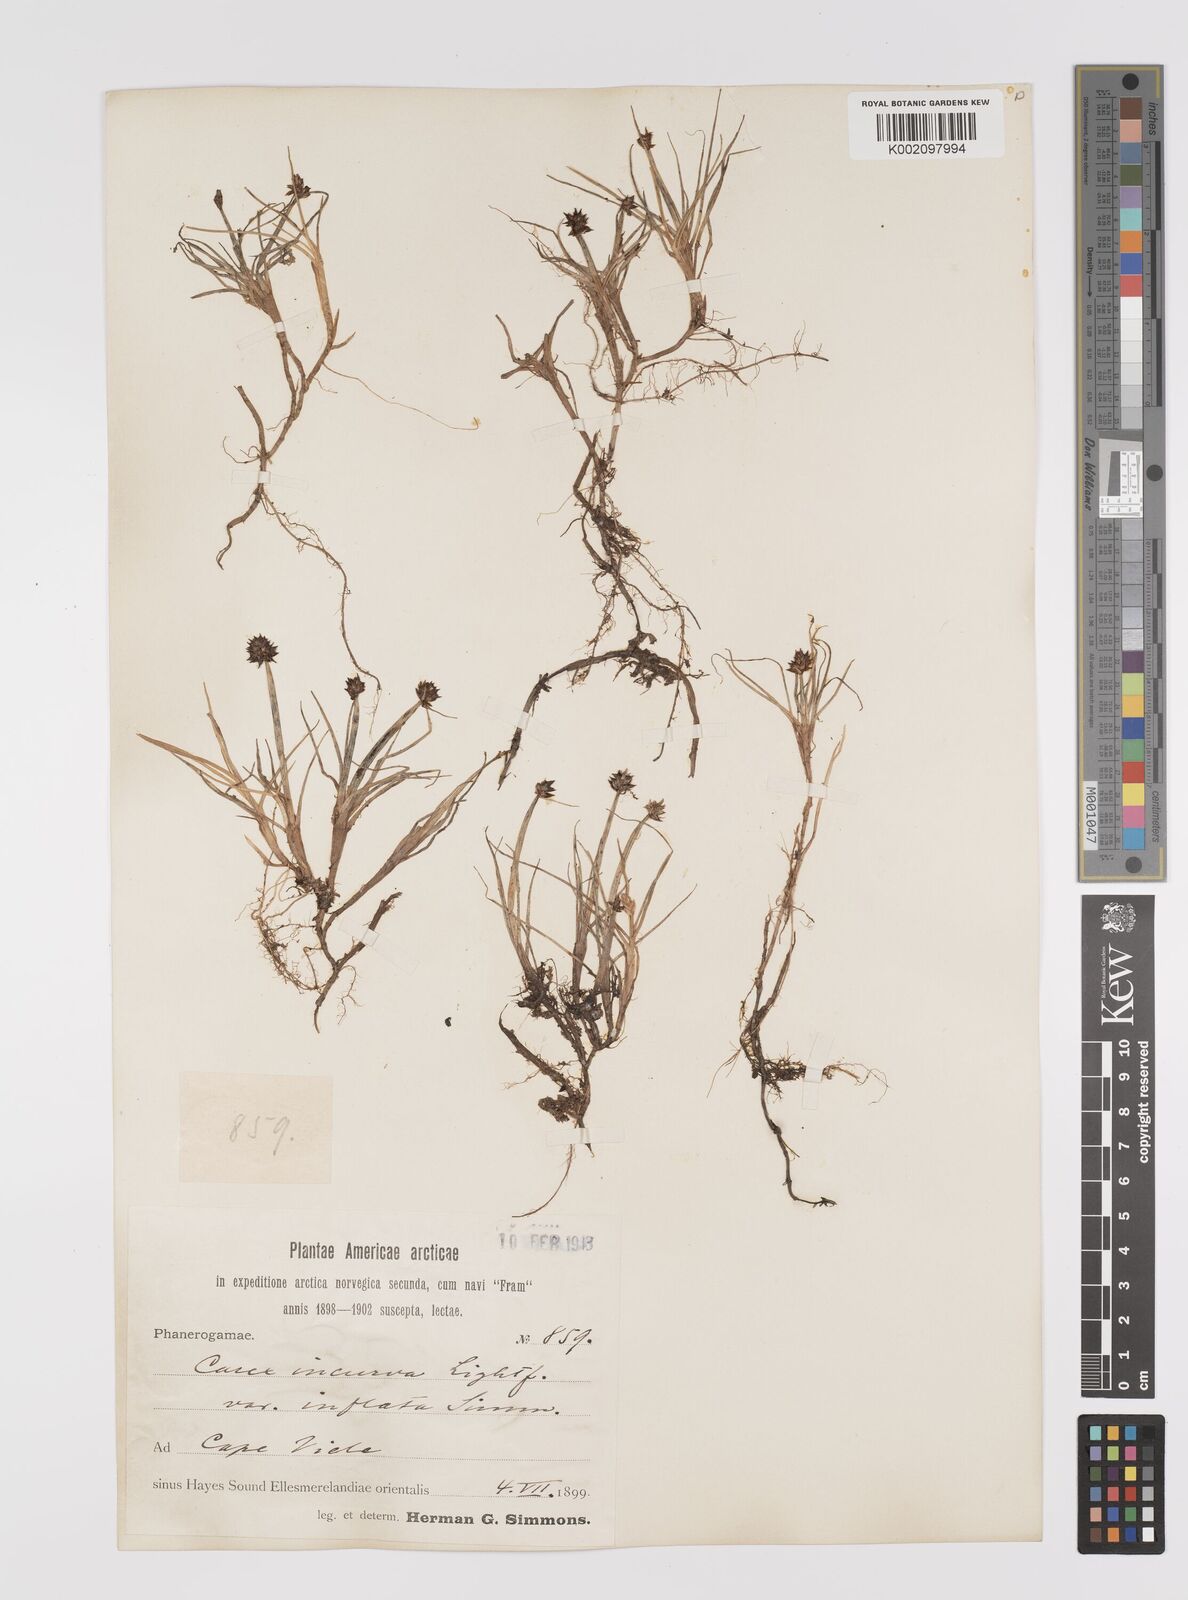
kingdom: Plantae
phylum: Tracheophyta
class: Liliopsida
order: Poales
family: Cyperaceae
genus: Carex
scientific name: Carex maritima
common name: Curved sedge
